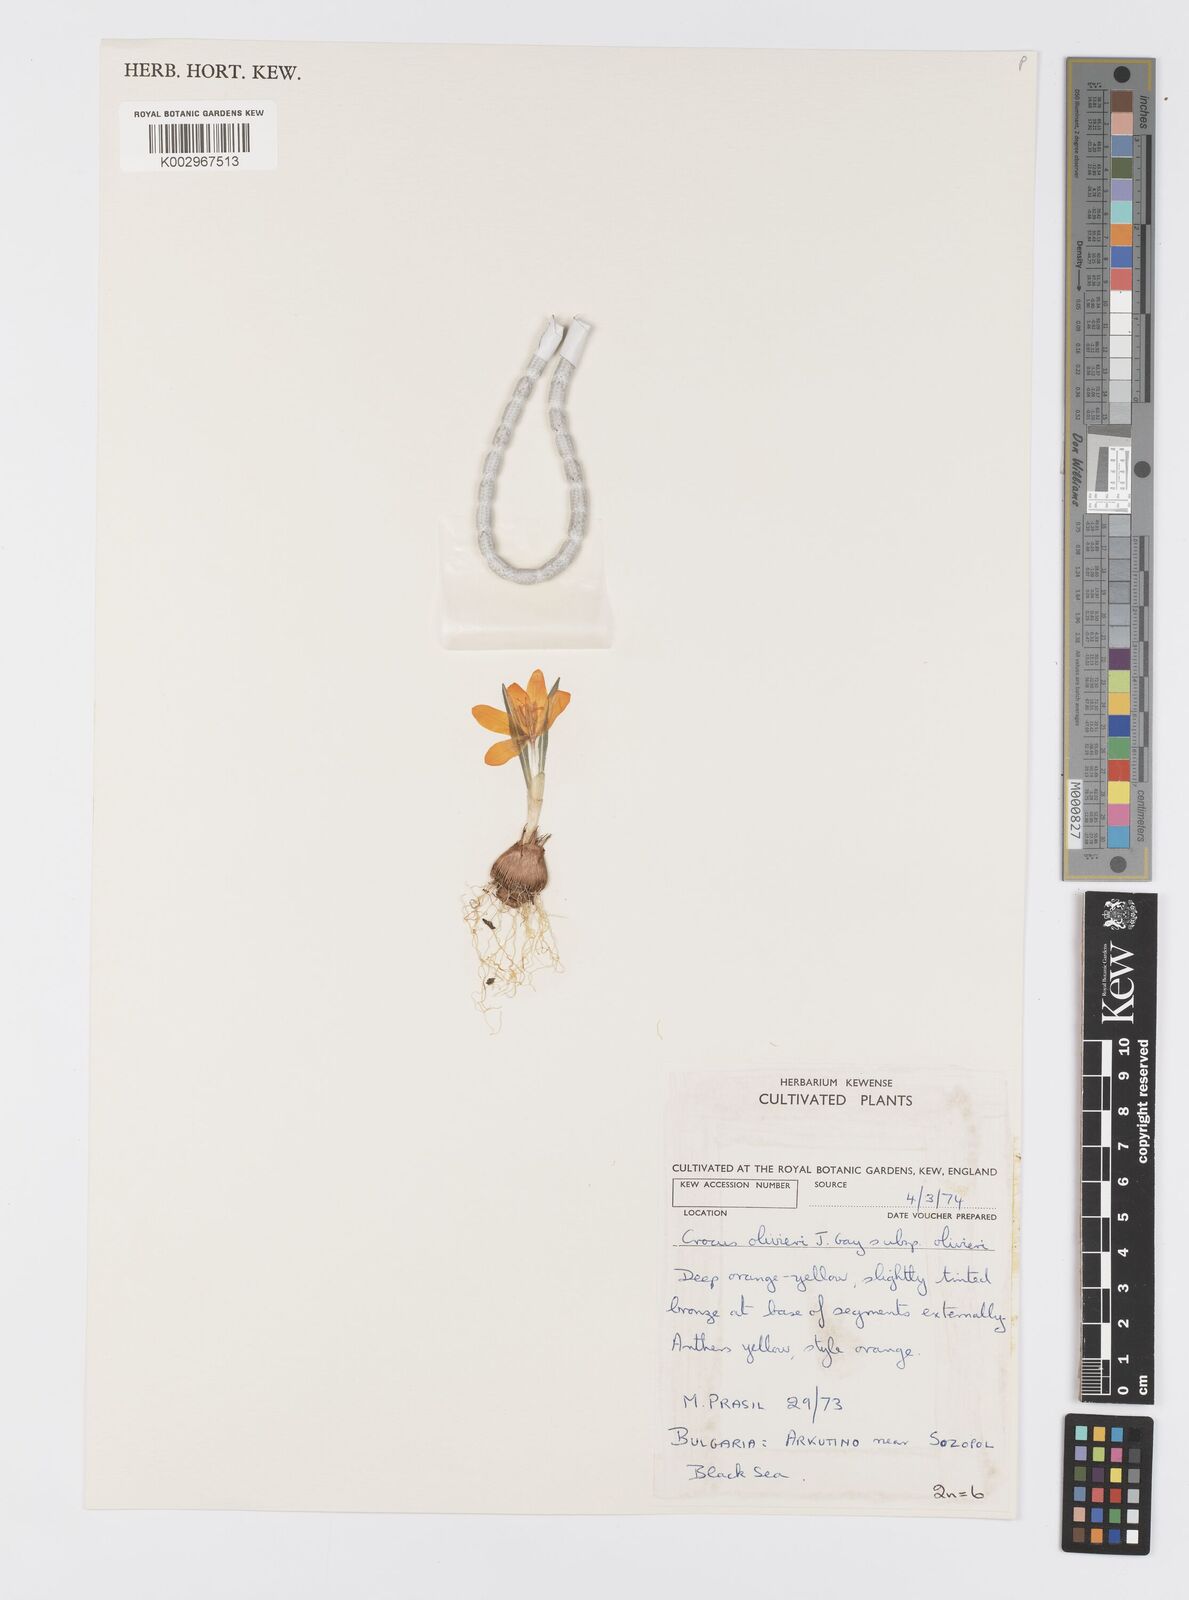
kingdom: Plantae
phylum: Tracheophyta
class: Liliopsida
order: Asparagales
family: Iridaceae
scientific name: Iridaceae
